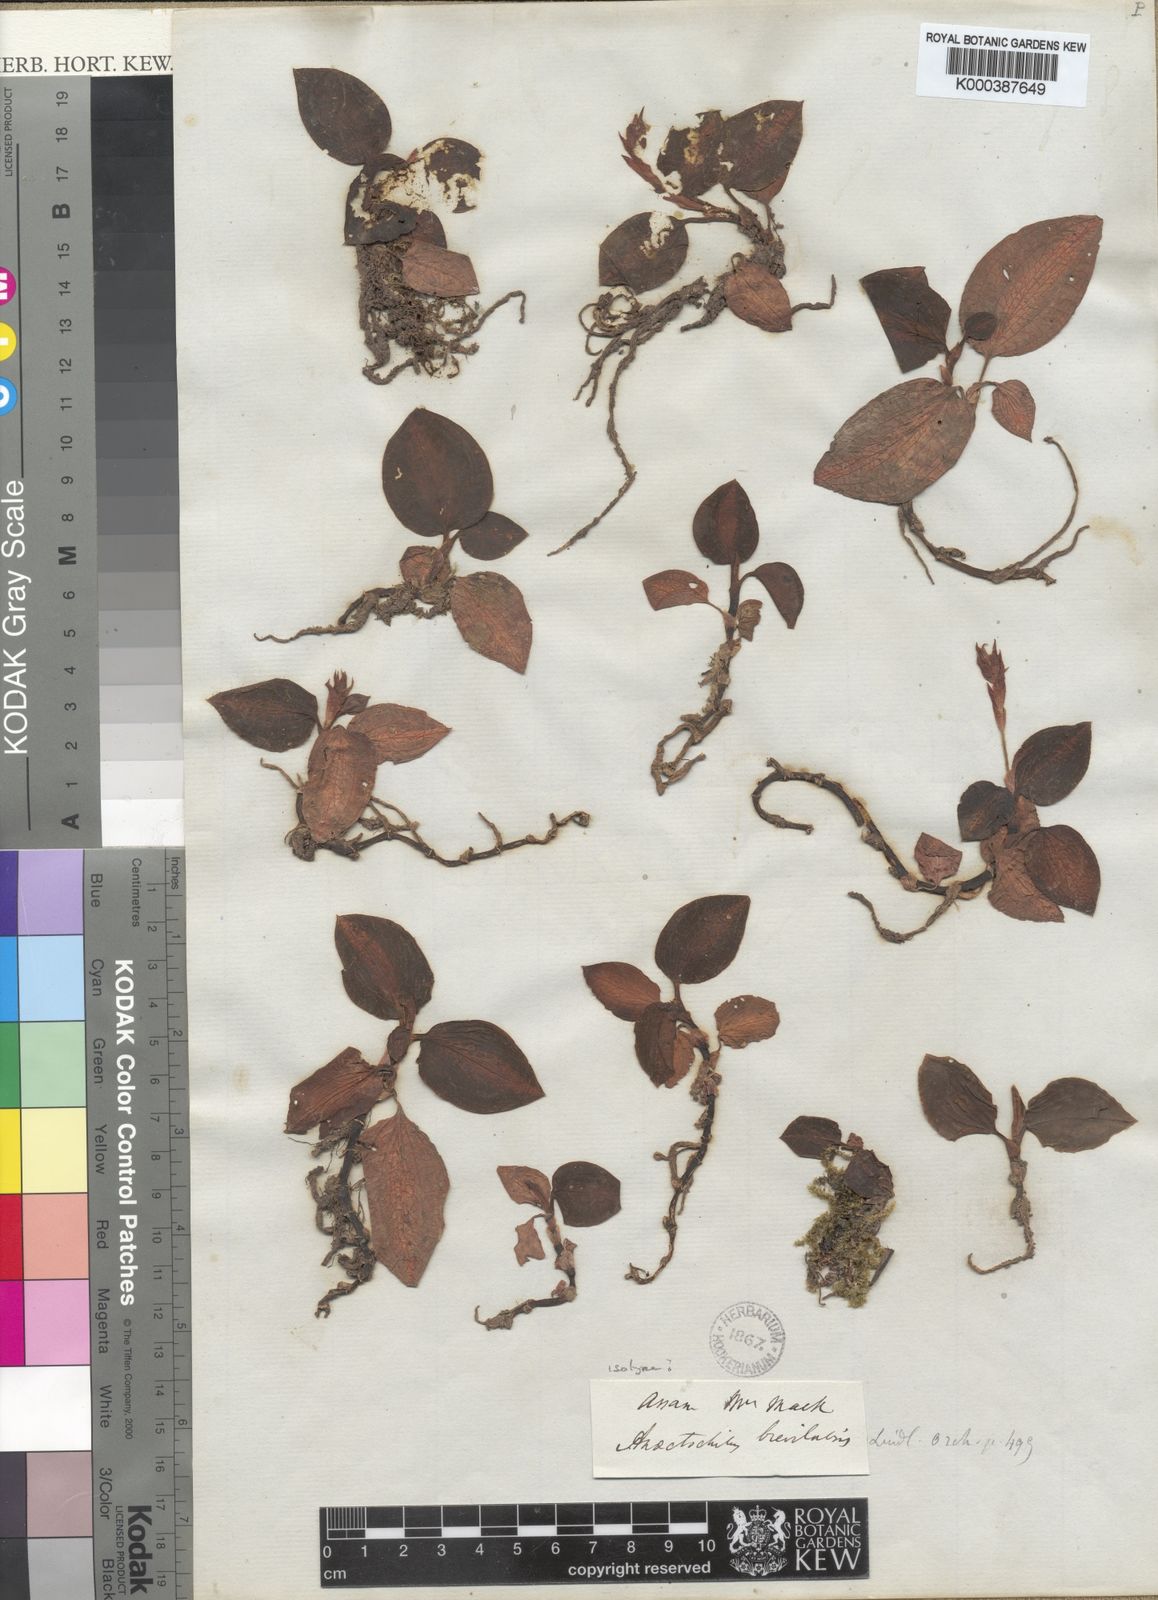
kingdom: Plantae
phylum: Tracheophyta
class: Liliopsida
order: Asparagales
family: Orchidaceae
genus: Anoectochilus
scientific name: Anoectochilus brevilabris
